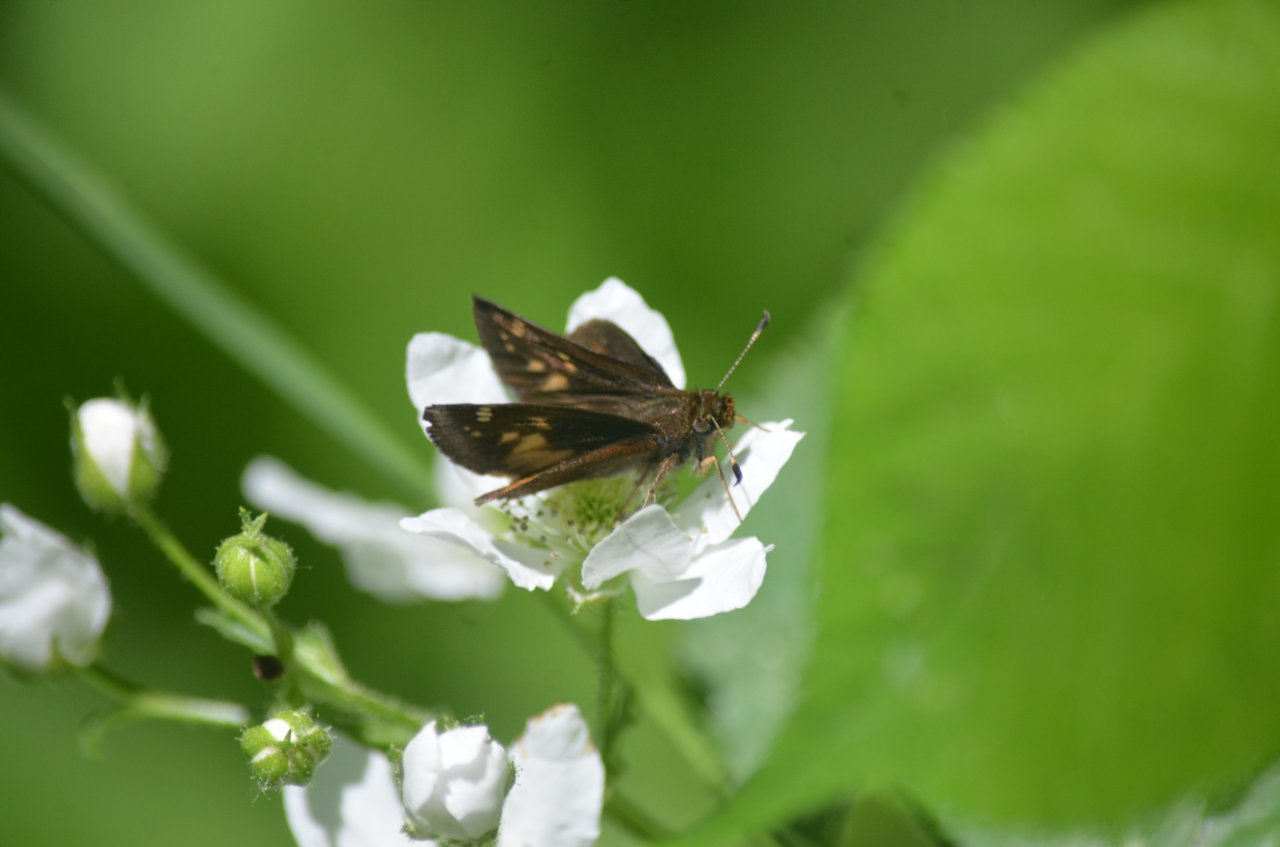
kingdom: Animalia
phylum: Arthropoda
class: Insecta
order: Lepidoptera
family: Hesperiidae
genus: Lon
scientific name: Lon hobomok
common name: Hobomok Skipper
